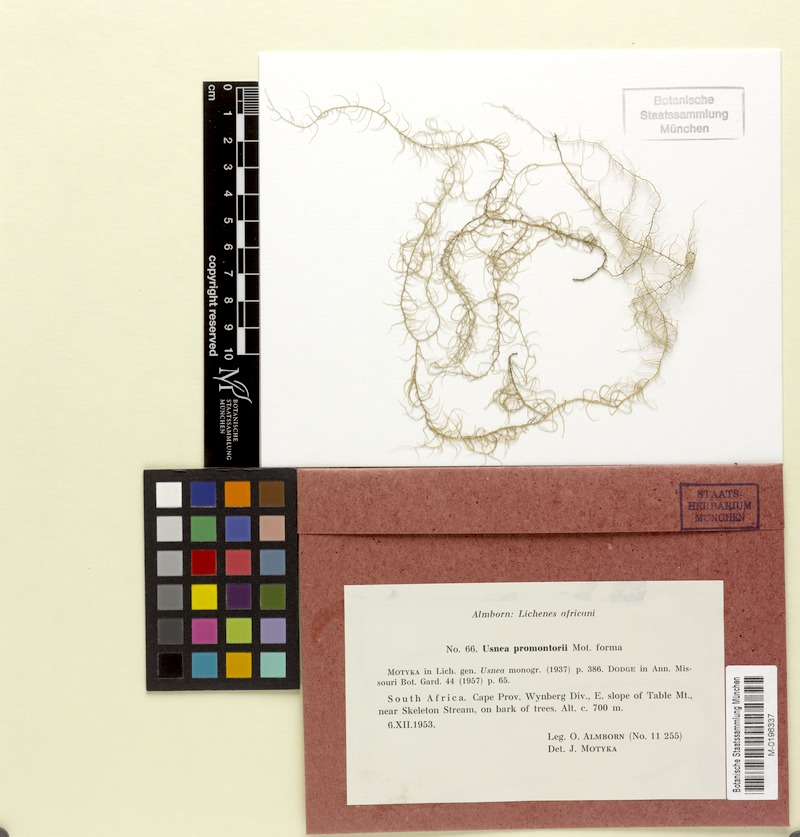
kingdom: Fungi
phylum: Ascomycota
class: Lecanoromycetes
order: Lecanorales
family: Parmeliaceae
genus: Usnea
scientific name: Usnea promontorii
